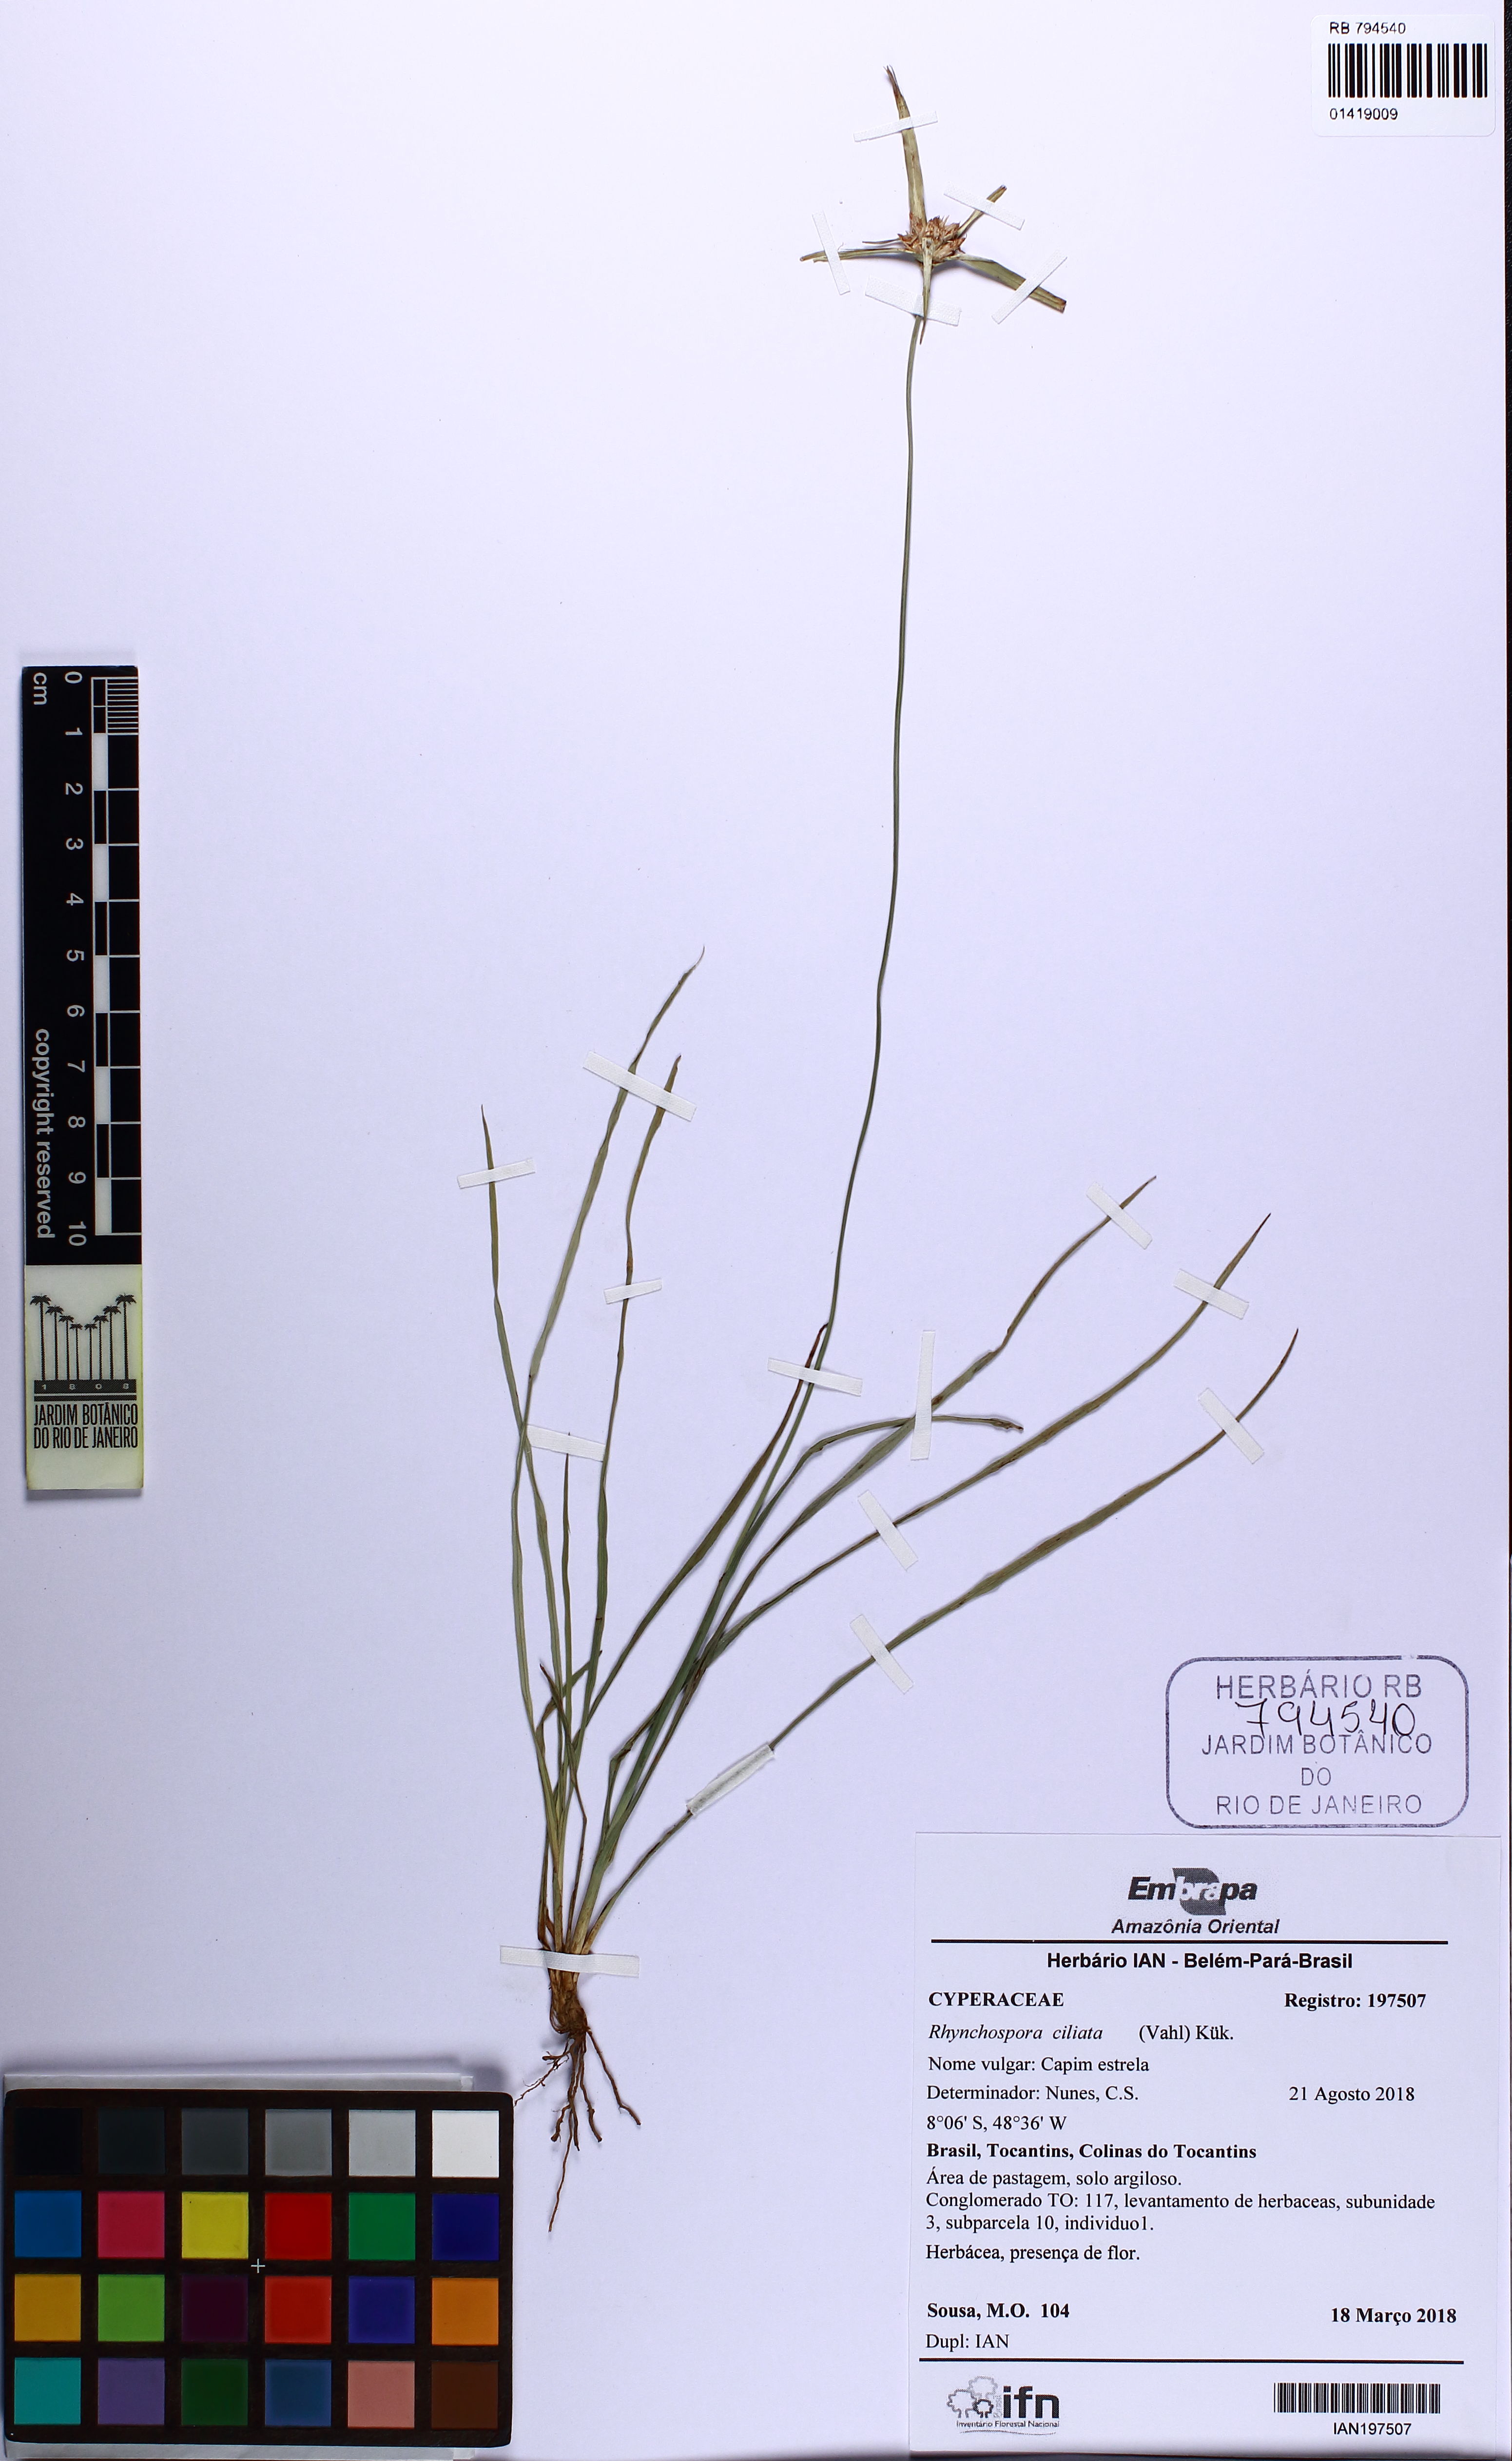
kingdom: Plantae
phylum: Tracheophyta
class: Liliopsida
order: Poales
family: Cyperaceae
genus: Rhynchospora
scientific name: Rhynchospora pura
